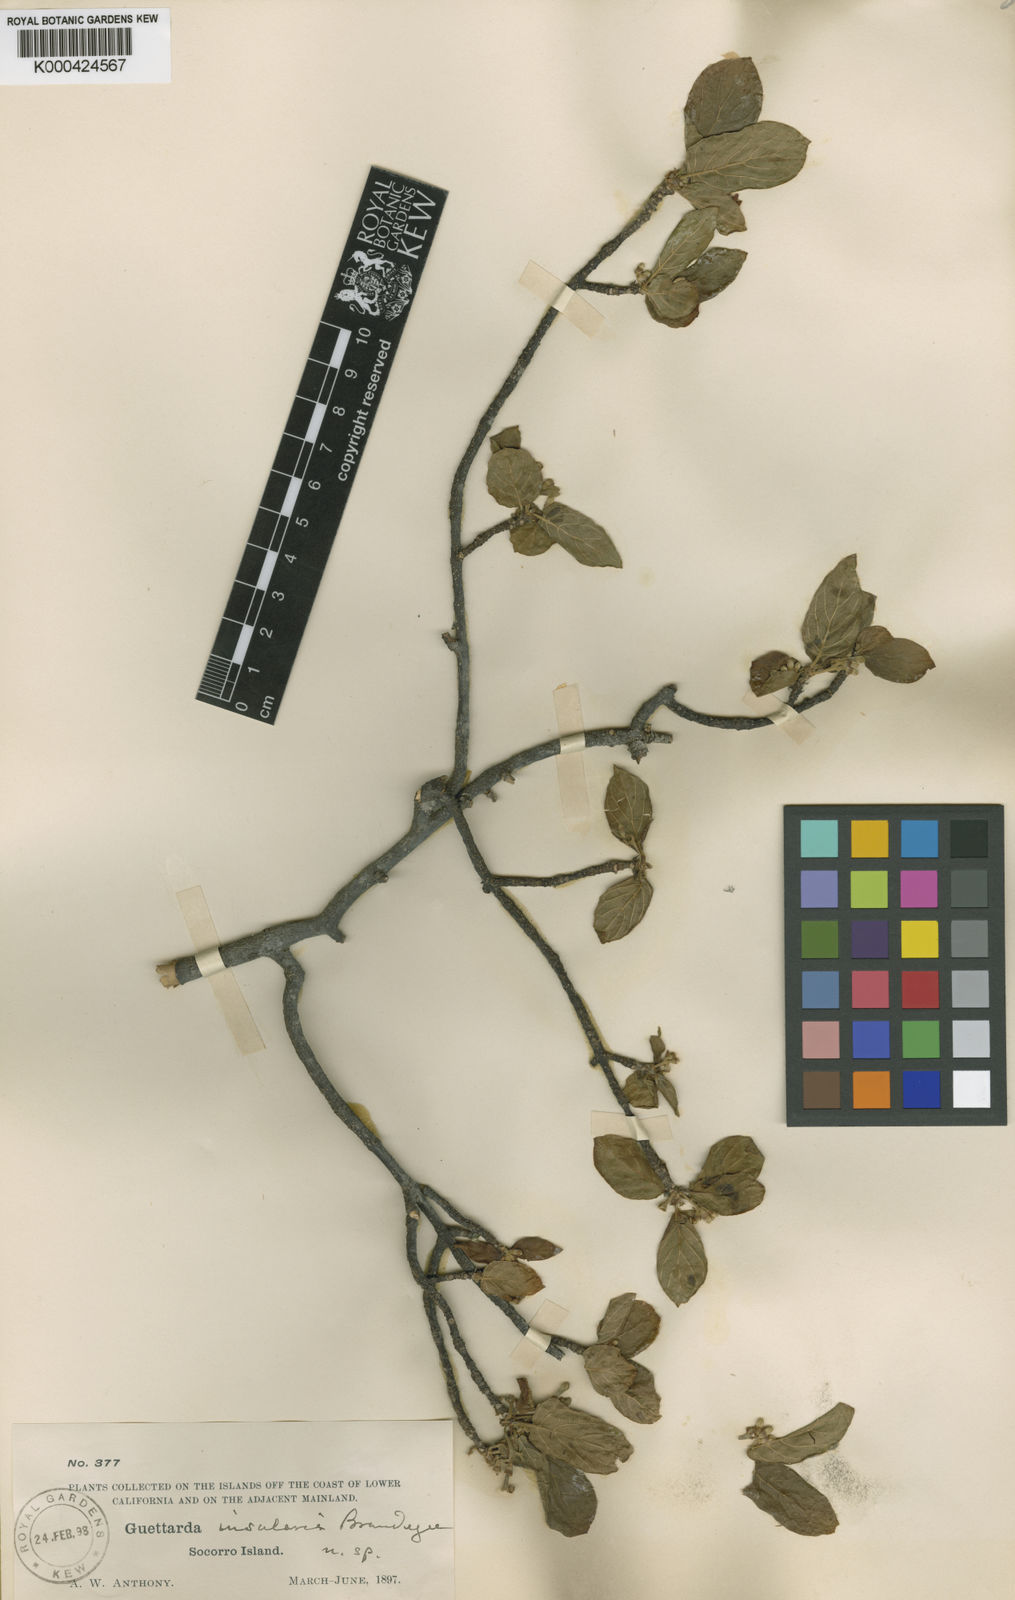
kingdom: Plantae
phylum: Tracheophyta
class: Magnoliopsida
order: Gentianales
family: Rubiaceae
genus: Guettarda
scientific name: Guettarda
